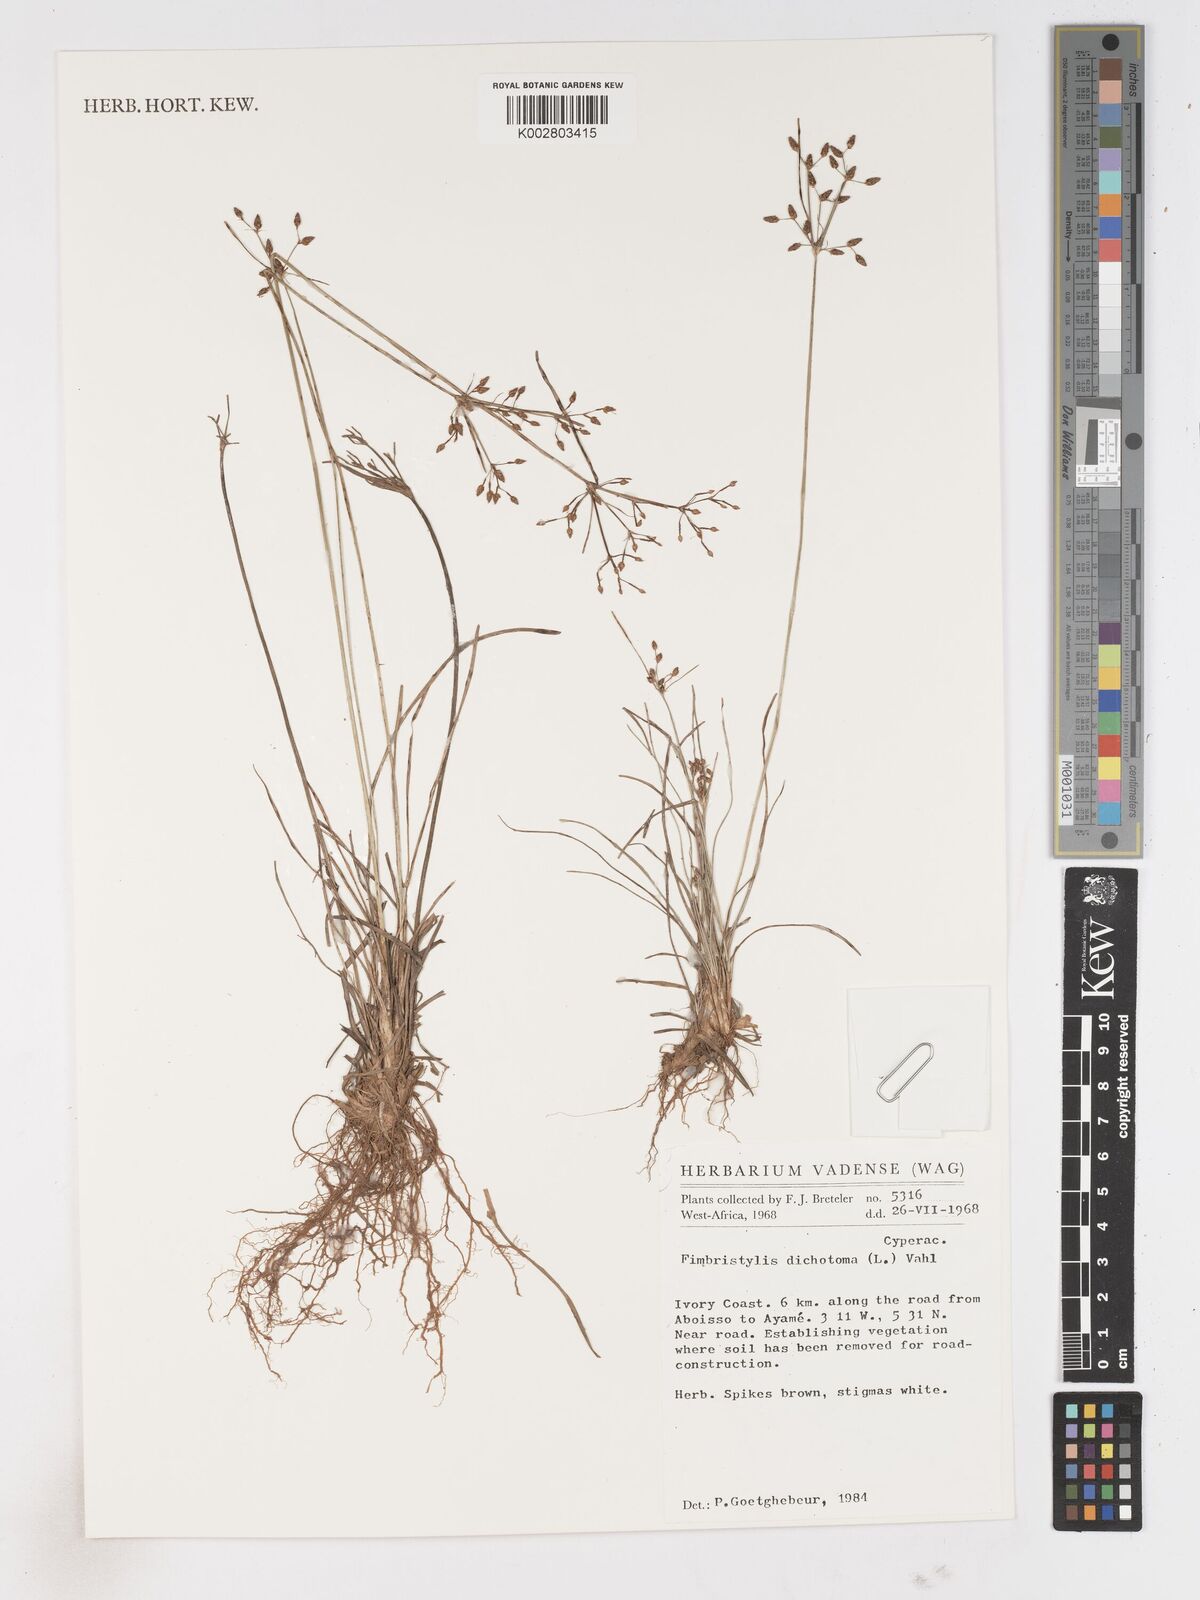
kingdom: Plantae
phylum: Tracheophyta
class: Liliopsida
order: Poales
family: Cyperaceae
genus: Fimbristylis
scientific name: Fimbristylis dichotoma
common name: Forked fimbry
